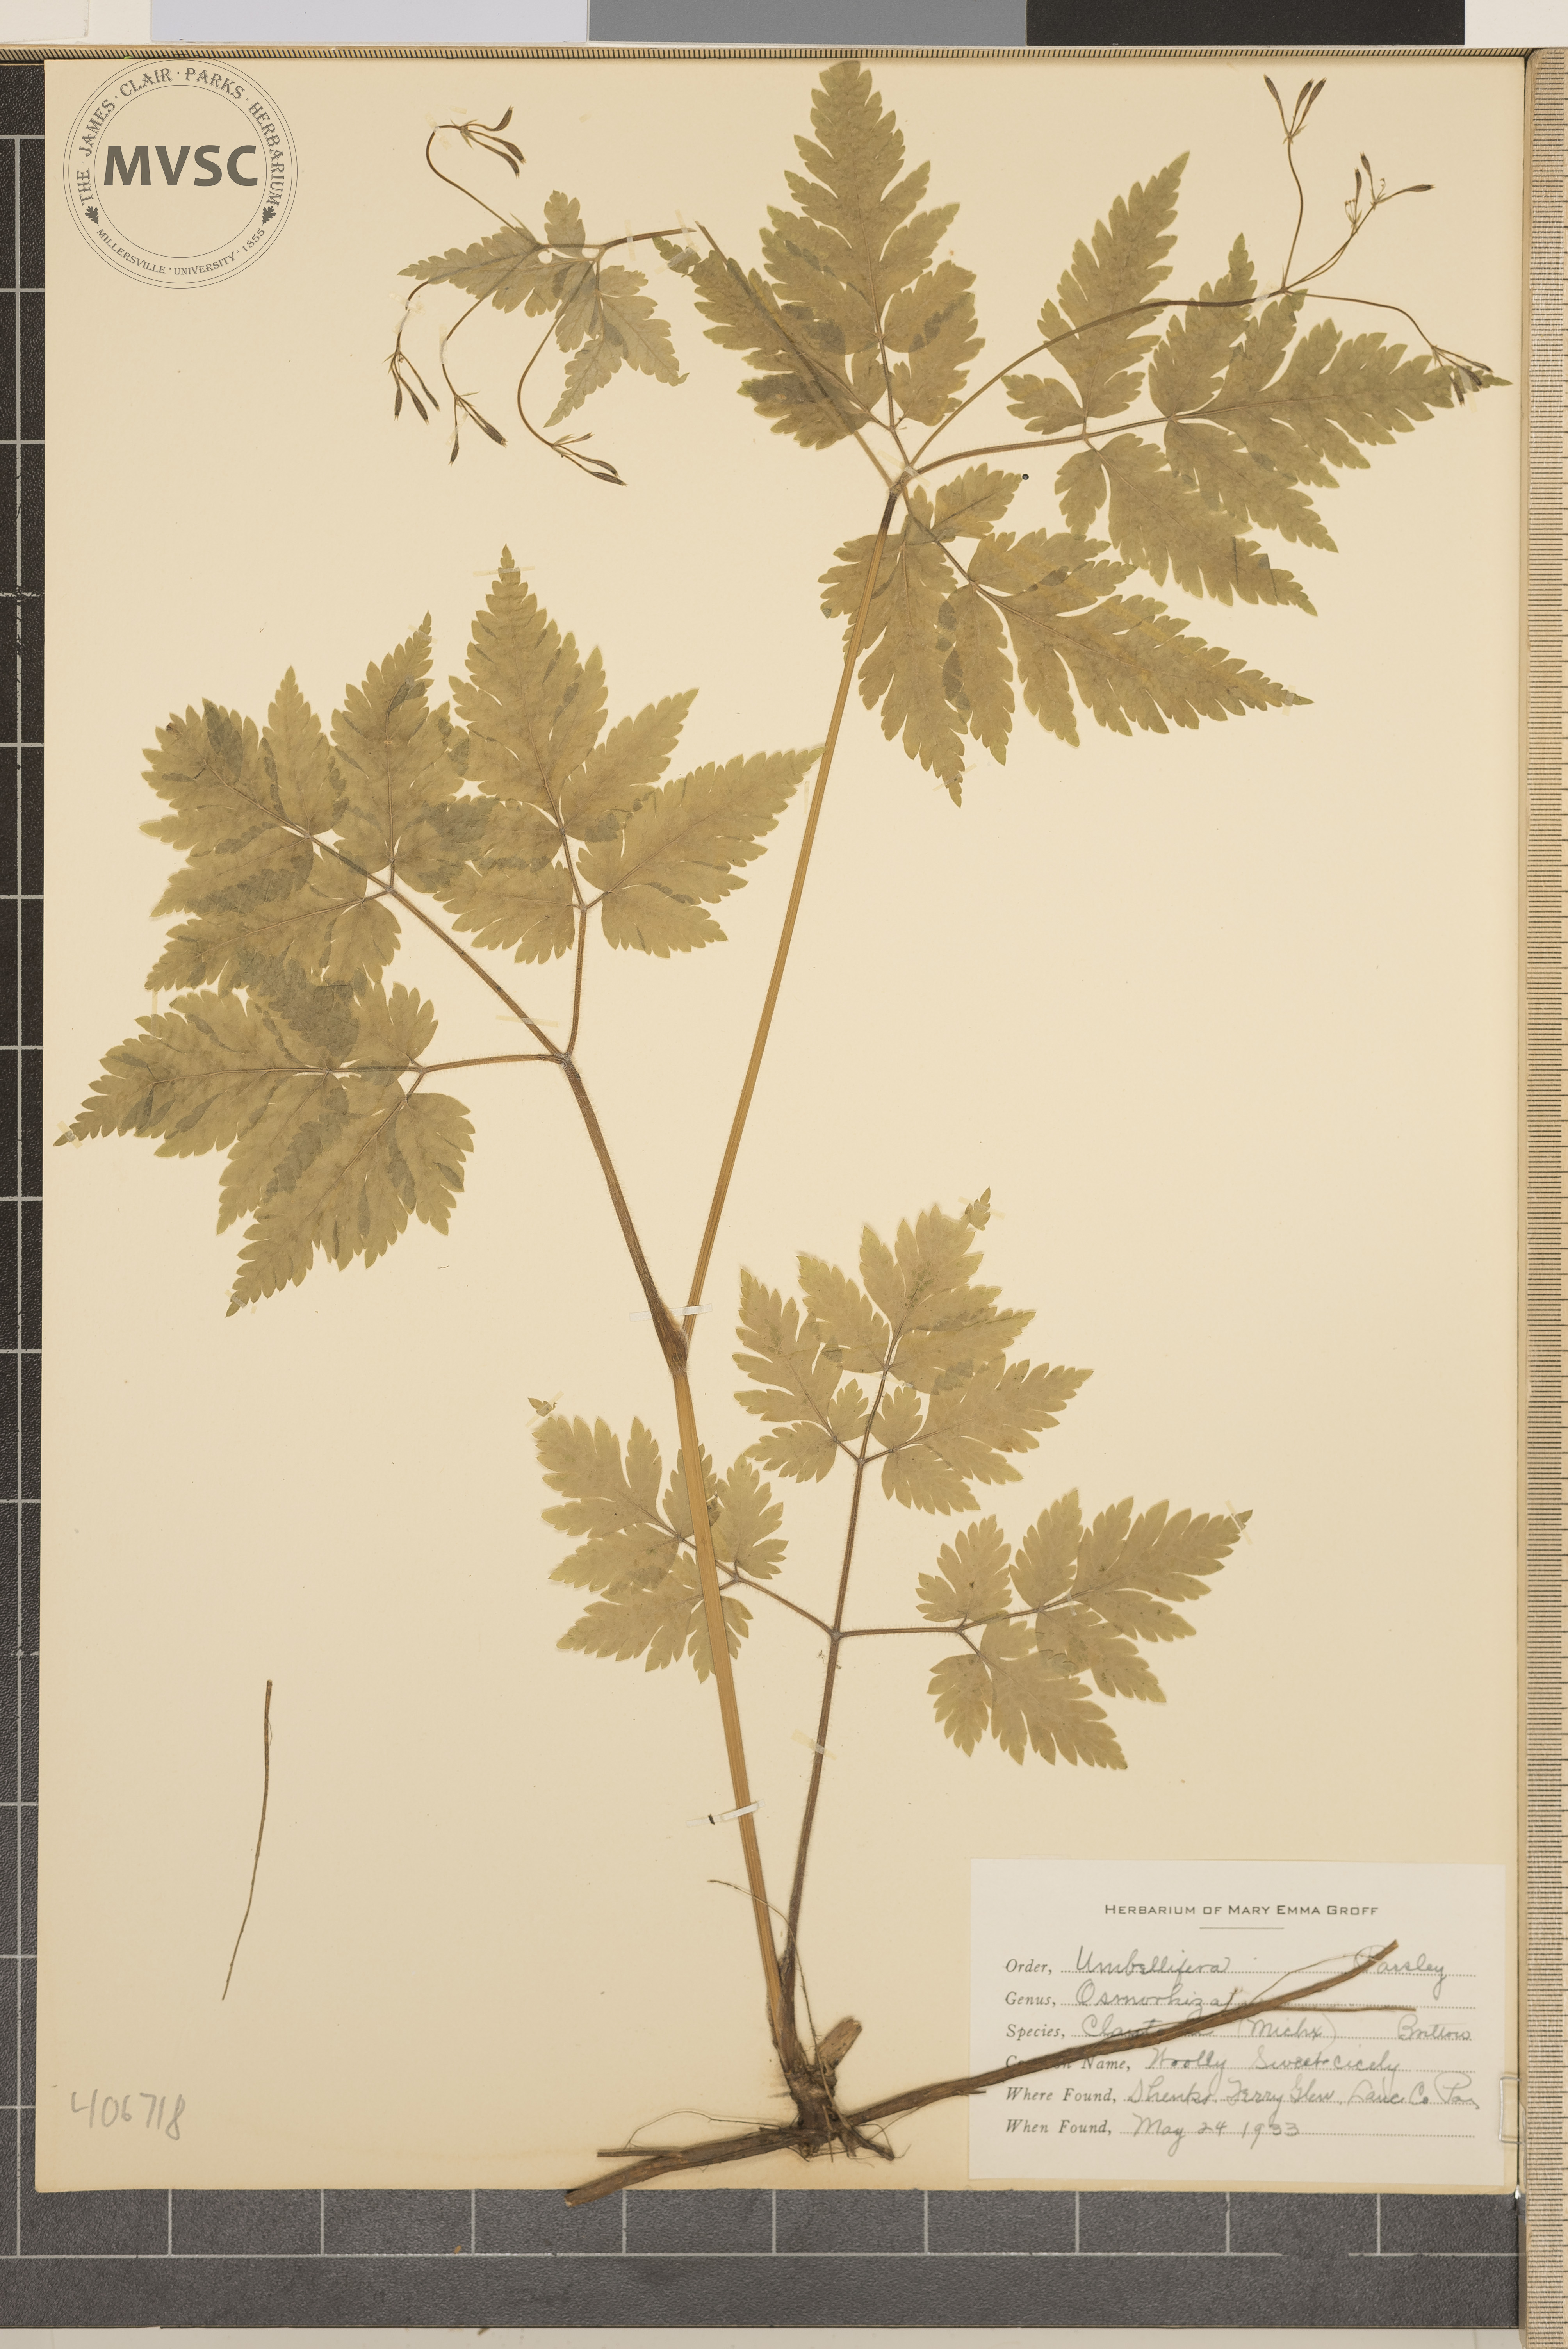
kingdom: Plantae
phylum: Tracheophyta
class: Magnoliopsida
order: Apiales
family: Apiaceae
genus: Osmorhiza
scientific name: Osmorhiza claytonii
